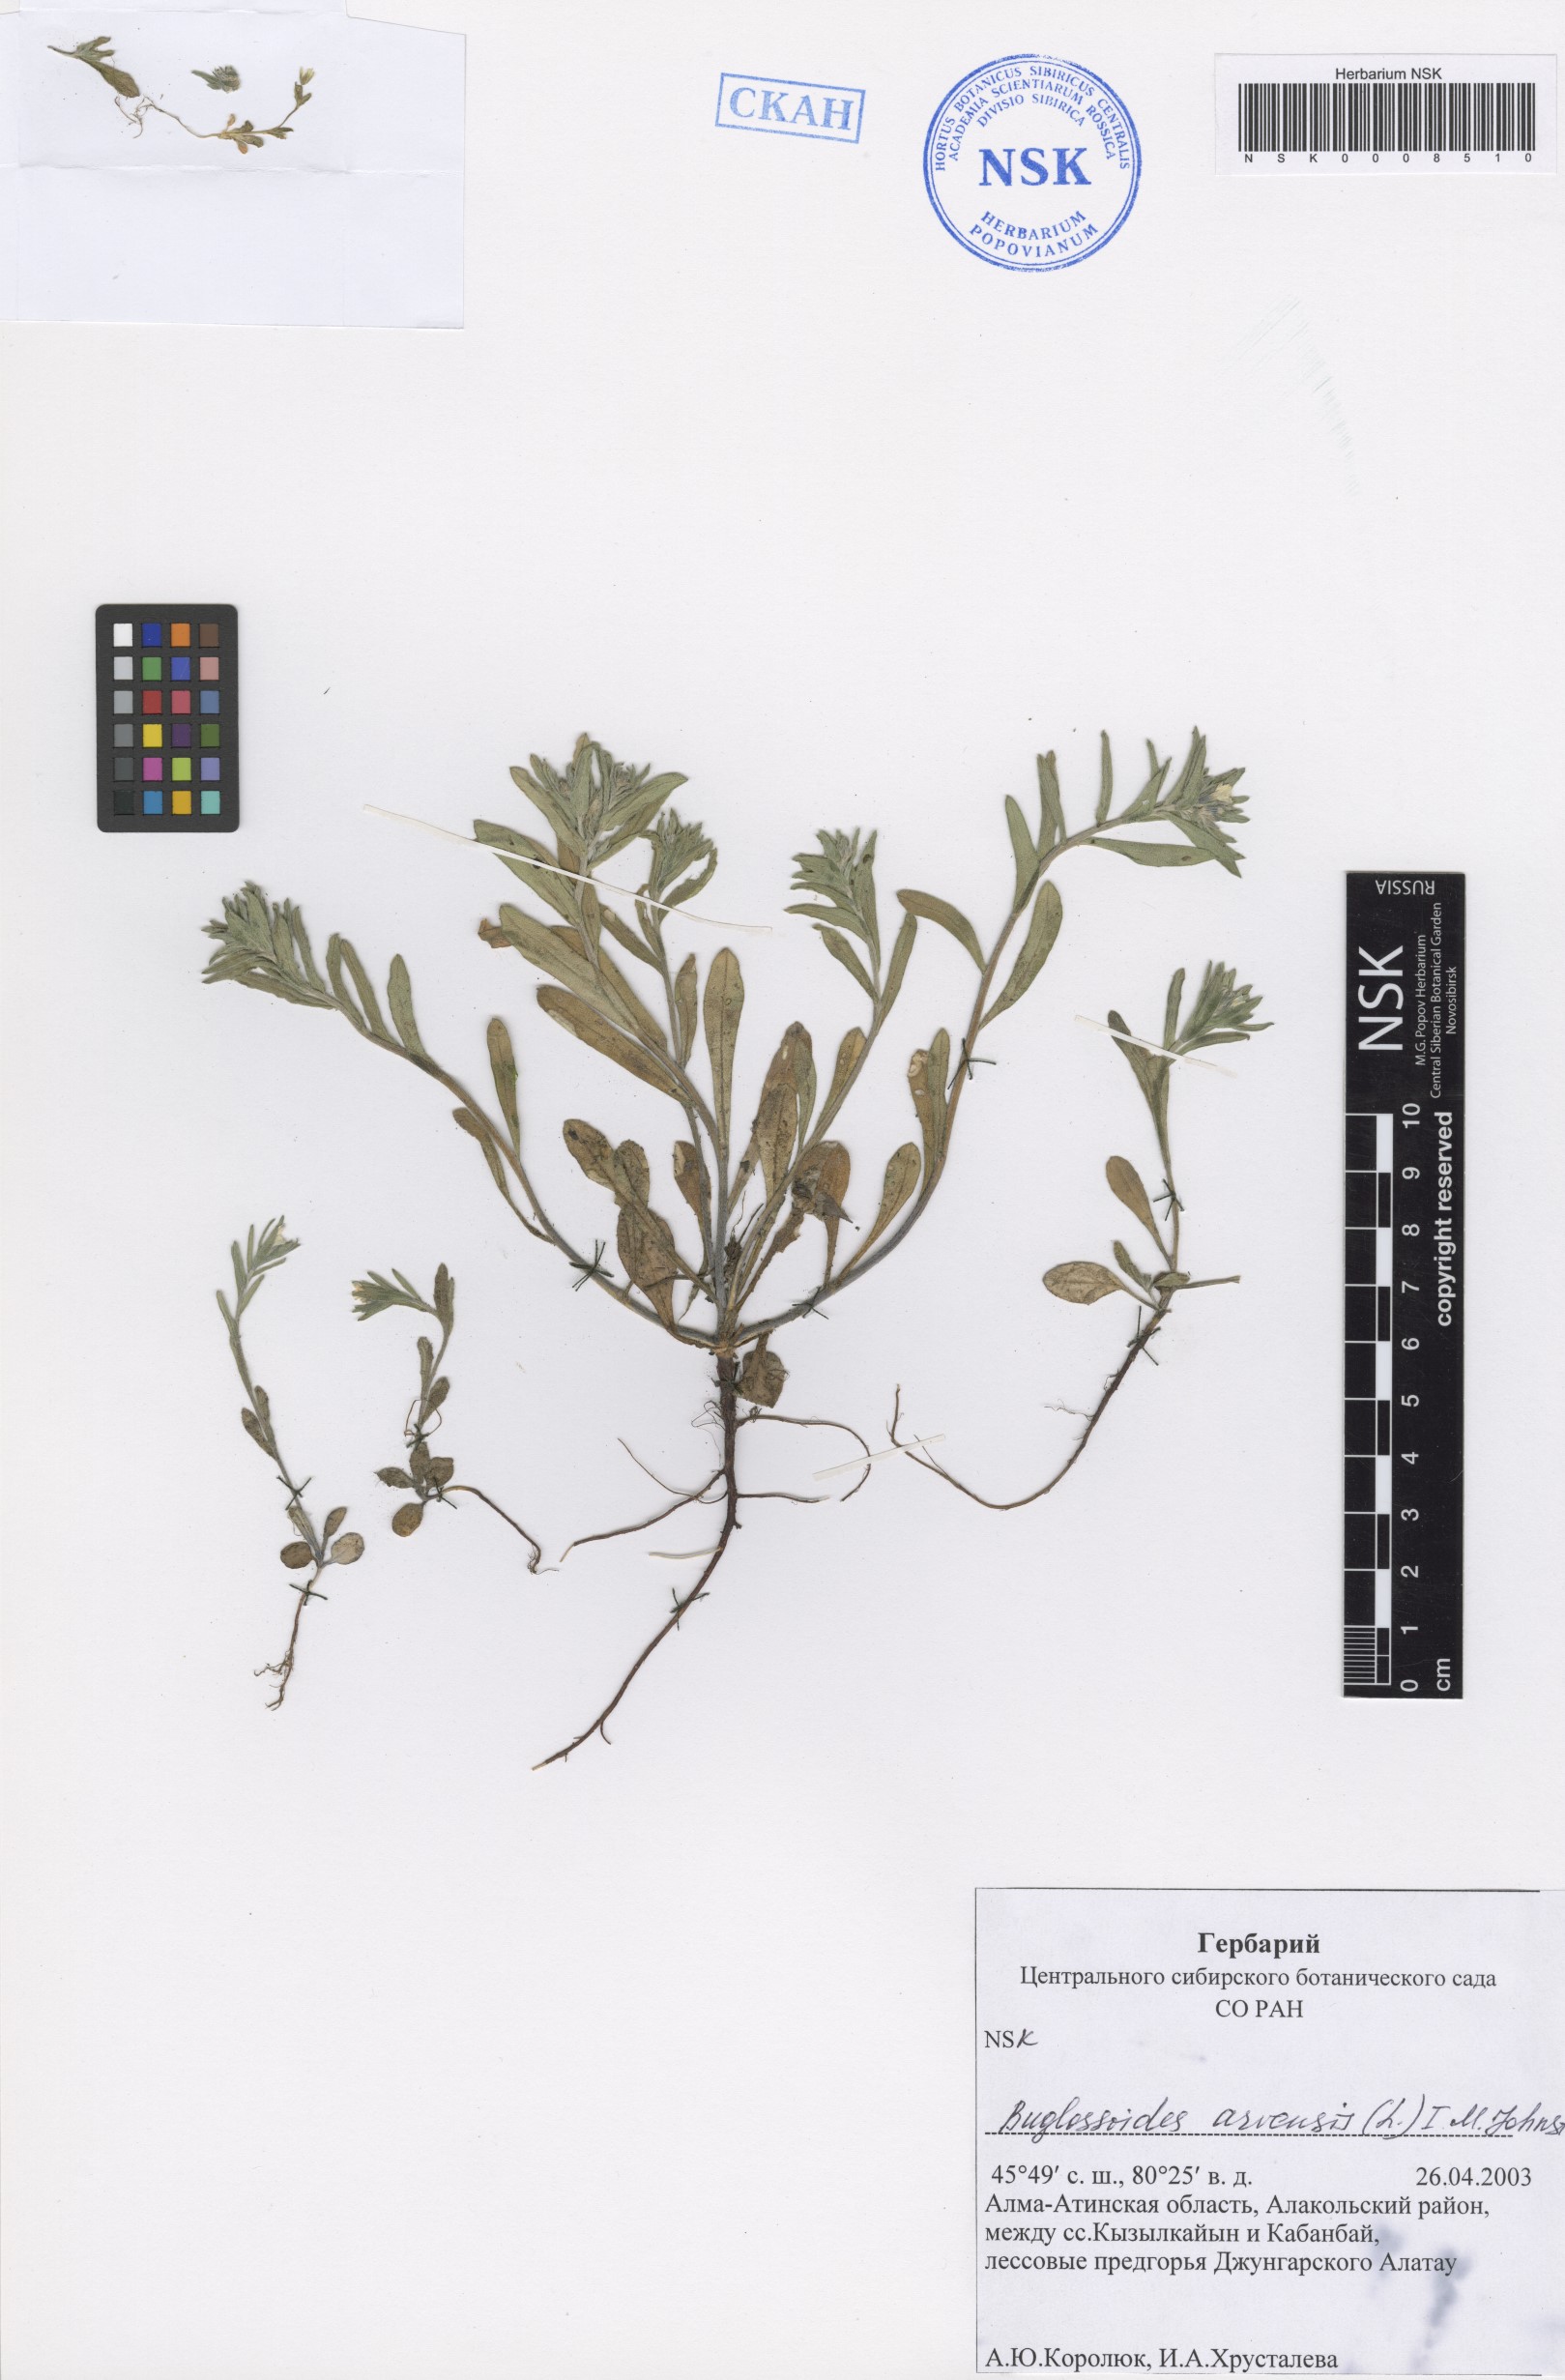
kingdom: Plantae
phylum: Tracheophyta
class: Magnoliopsida
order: Boraginales
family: Boraginaceae
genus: Buglossoides
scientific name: Buglossoides arvensis
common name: Corn gromwell
